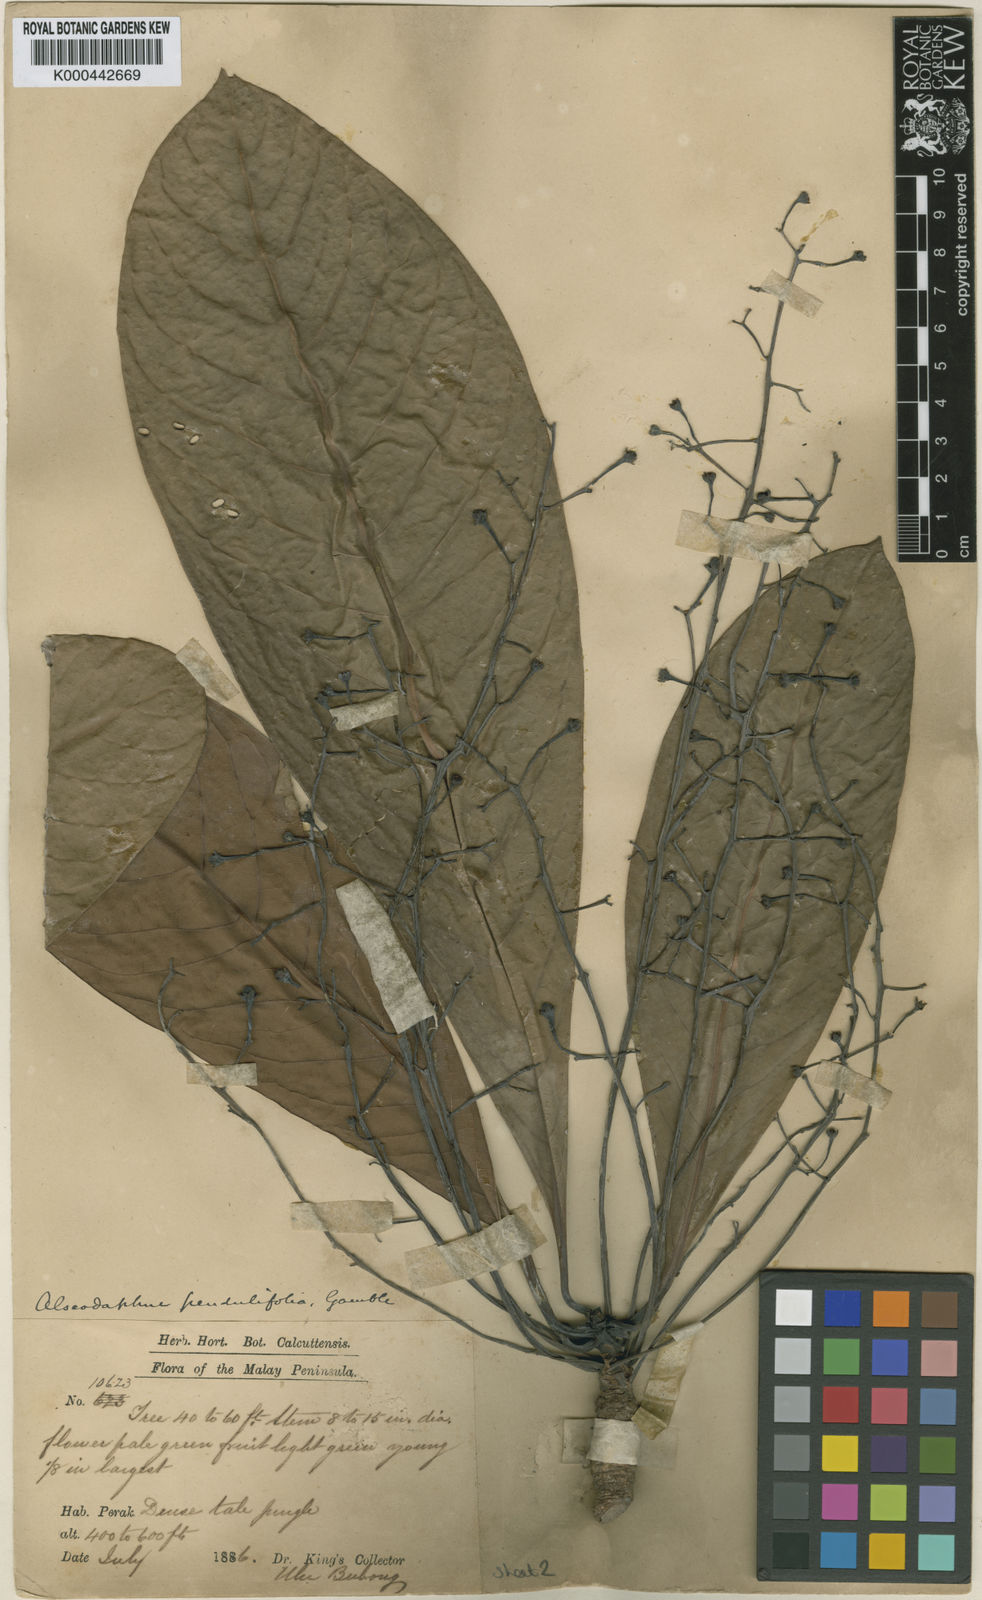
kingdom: Plantae
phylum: Tracheophyta
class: Magnoliopsida
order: Laurales
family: Lauraceae
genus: Alseodaphne
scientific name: Alseodaphne pendulifolia
